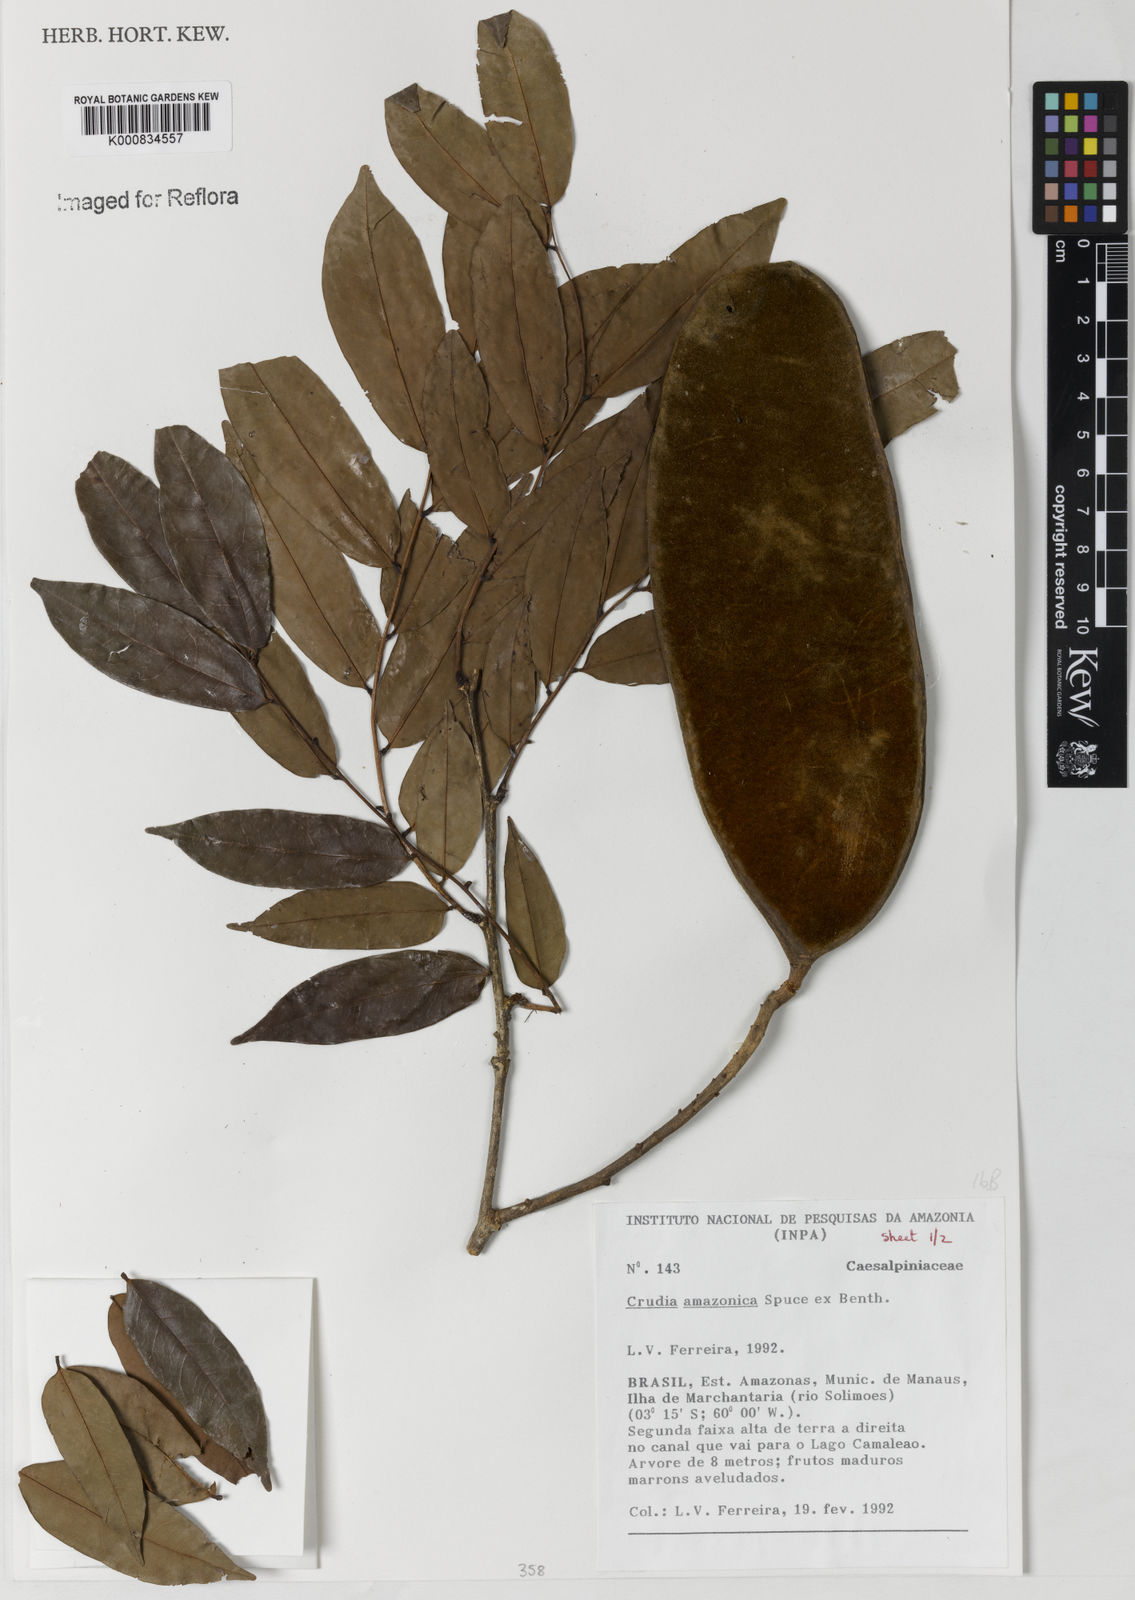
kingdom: Plantae
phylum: Tracheophyta
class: Magnoliopsida
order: Fabales
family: Fabaceae
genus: Crudia
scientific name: Crudia
